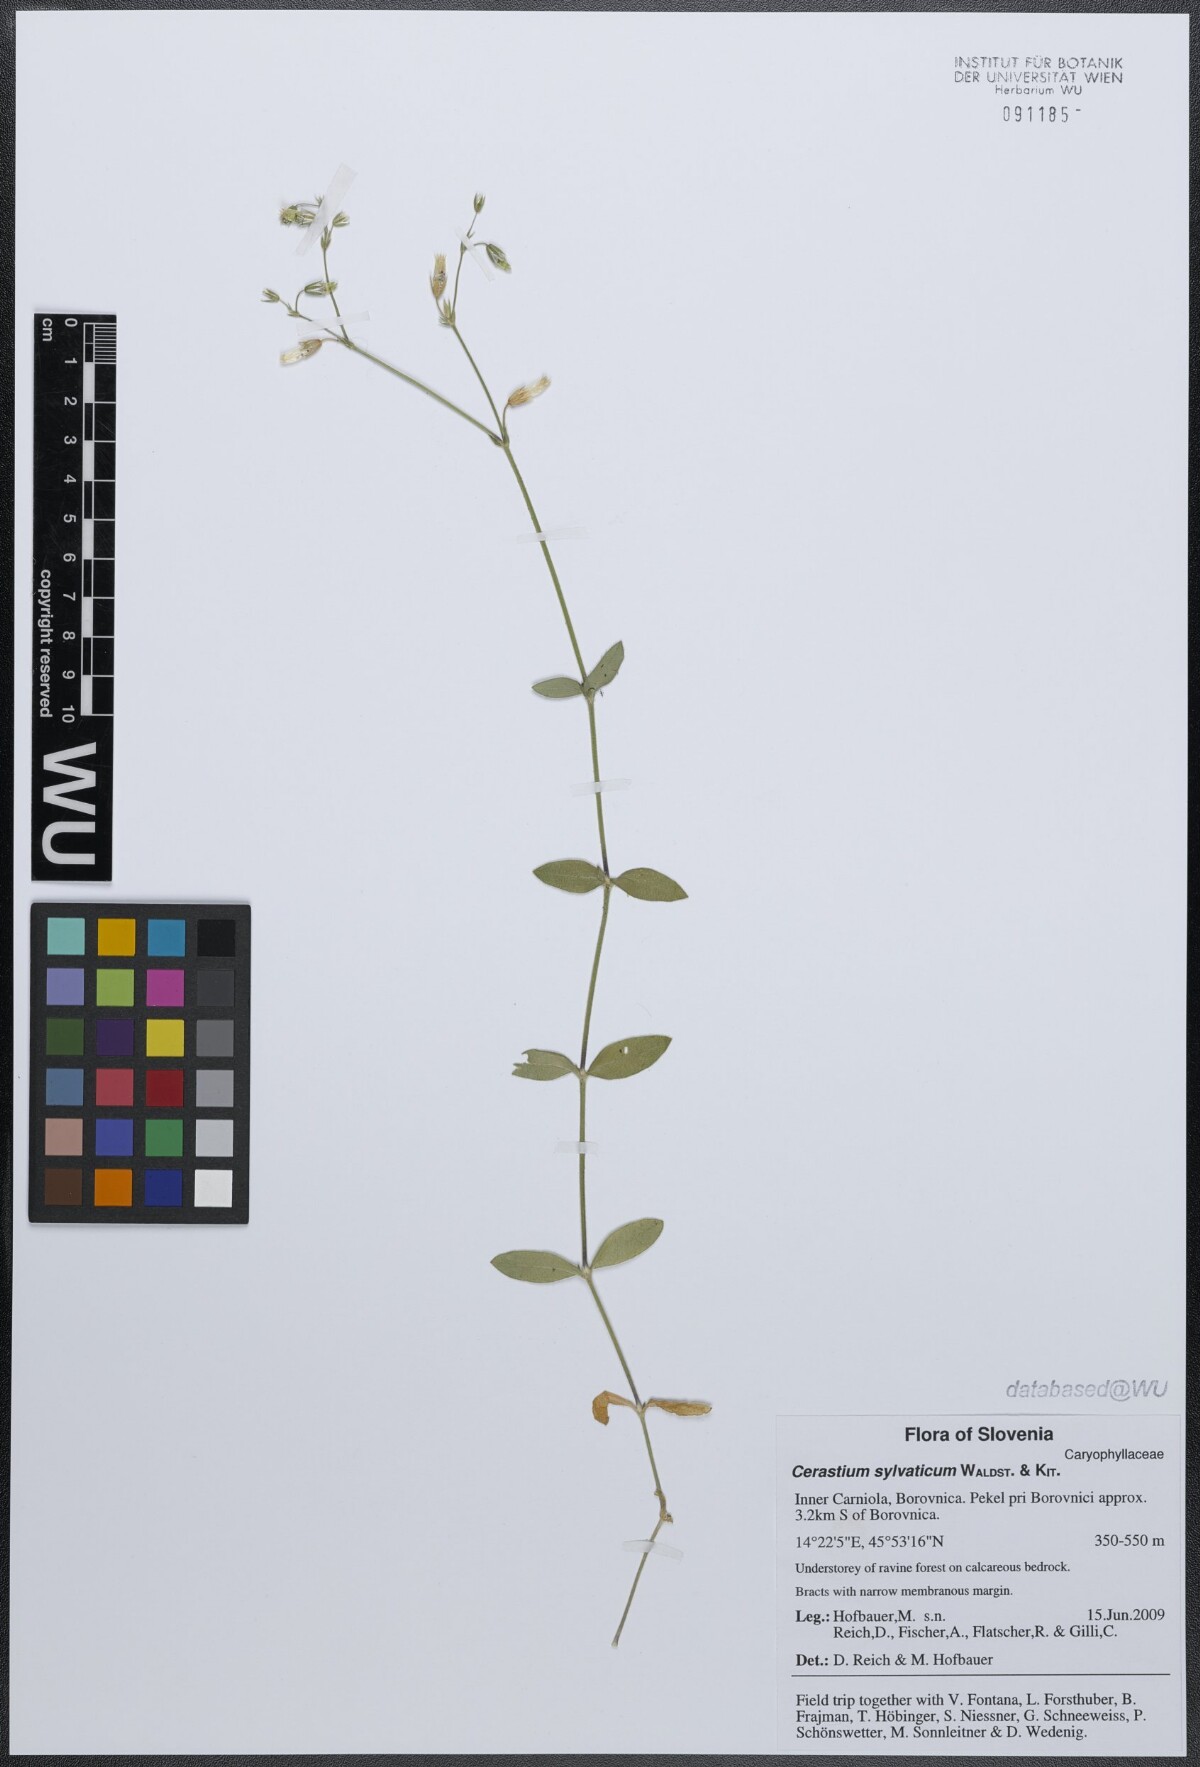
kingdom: Plantae
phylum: Tracheophyta
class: Magnoliopsida
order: Caryophyllales
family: Caryophyllaceae
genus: Cerastium
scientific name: Cerastium holosteoides
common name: Big chickweed
